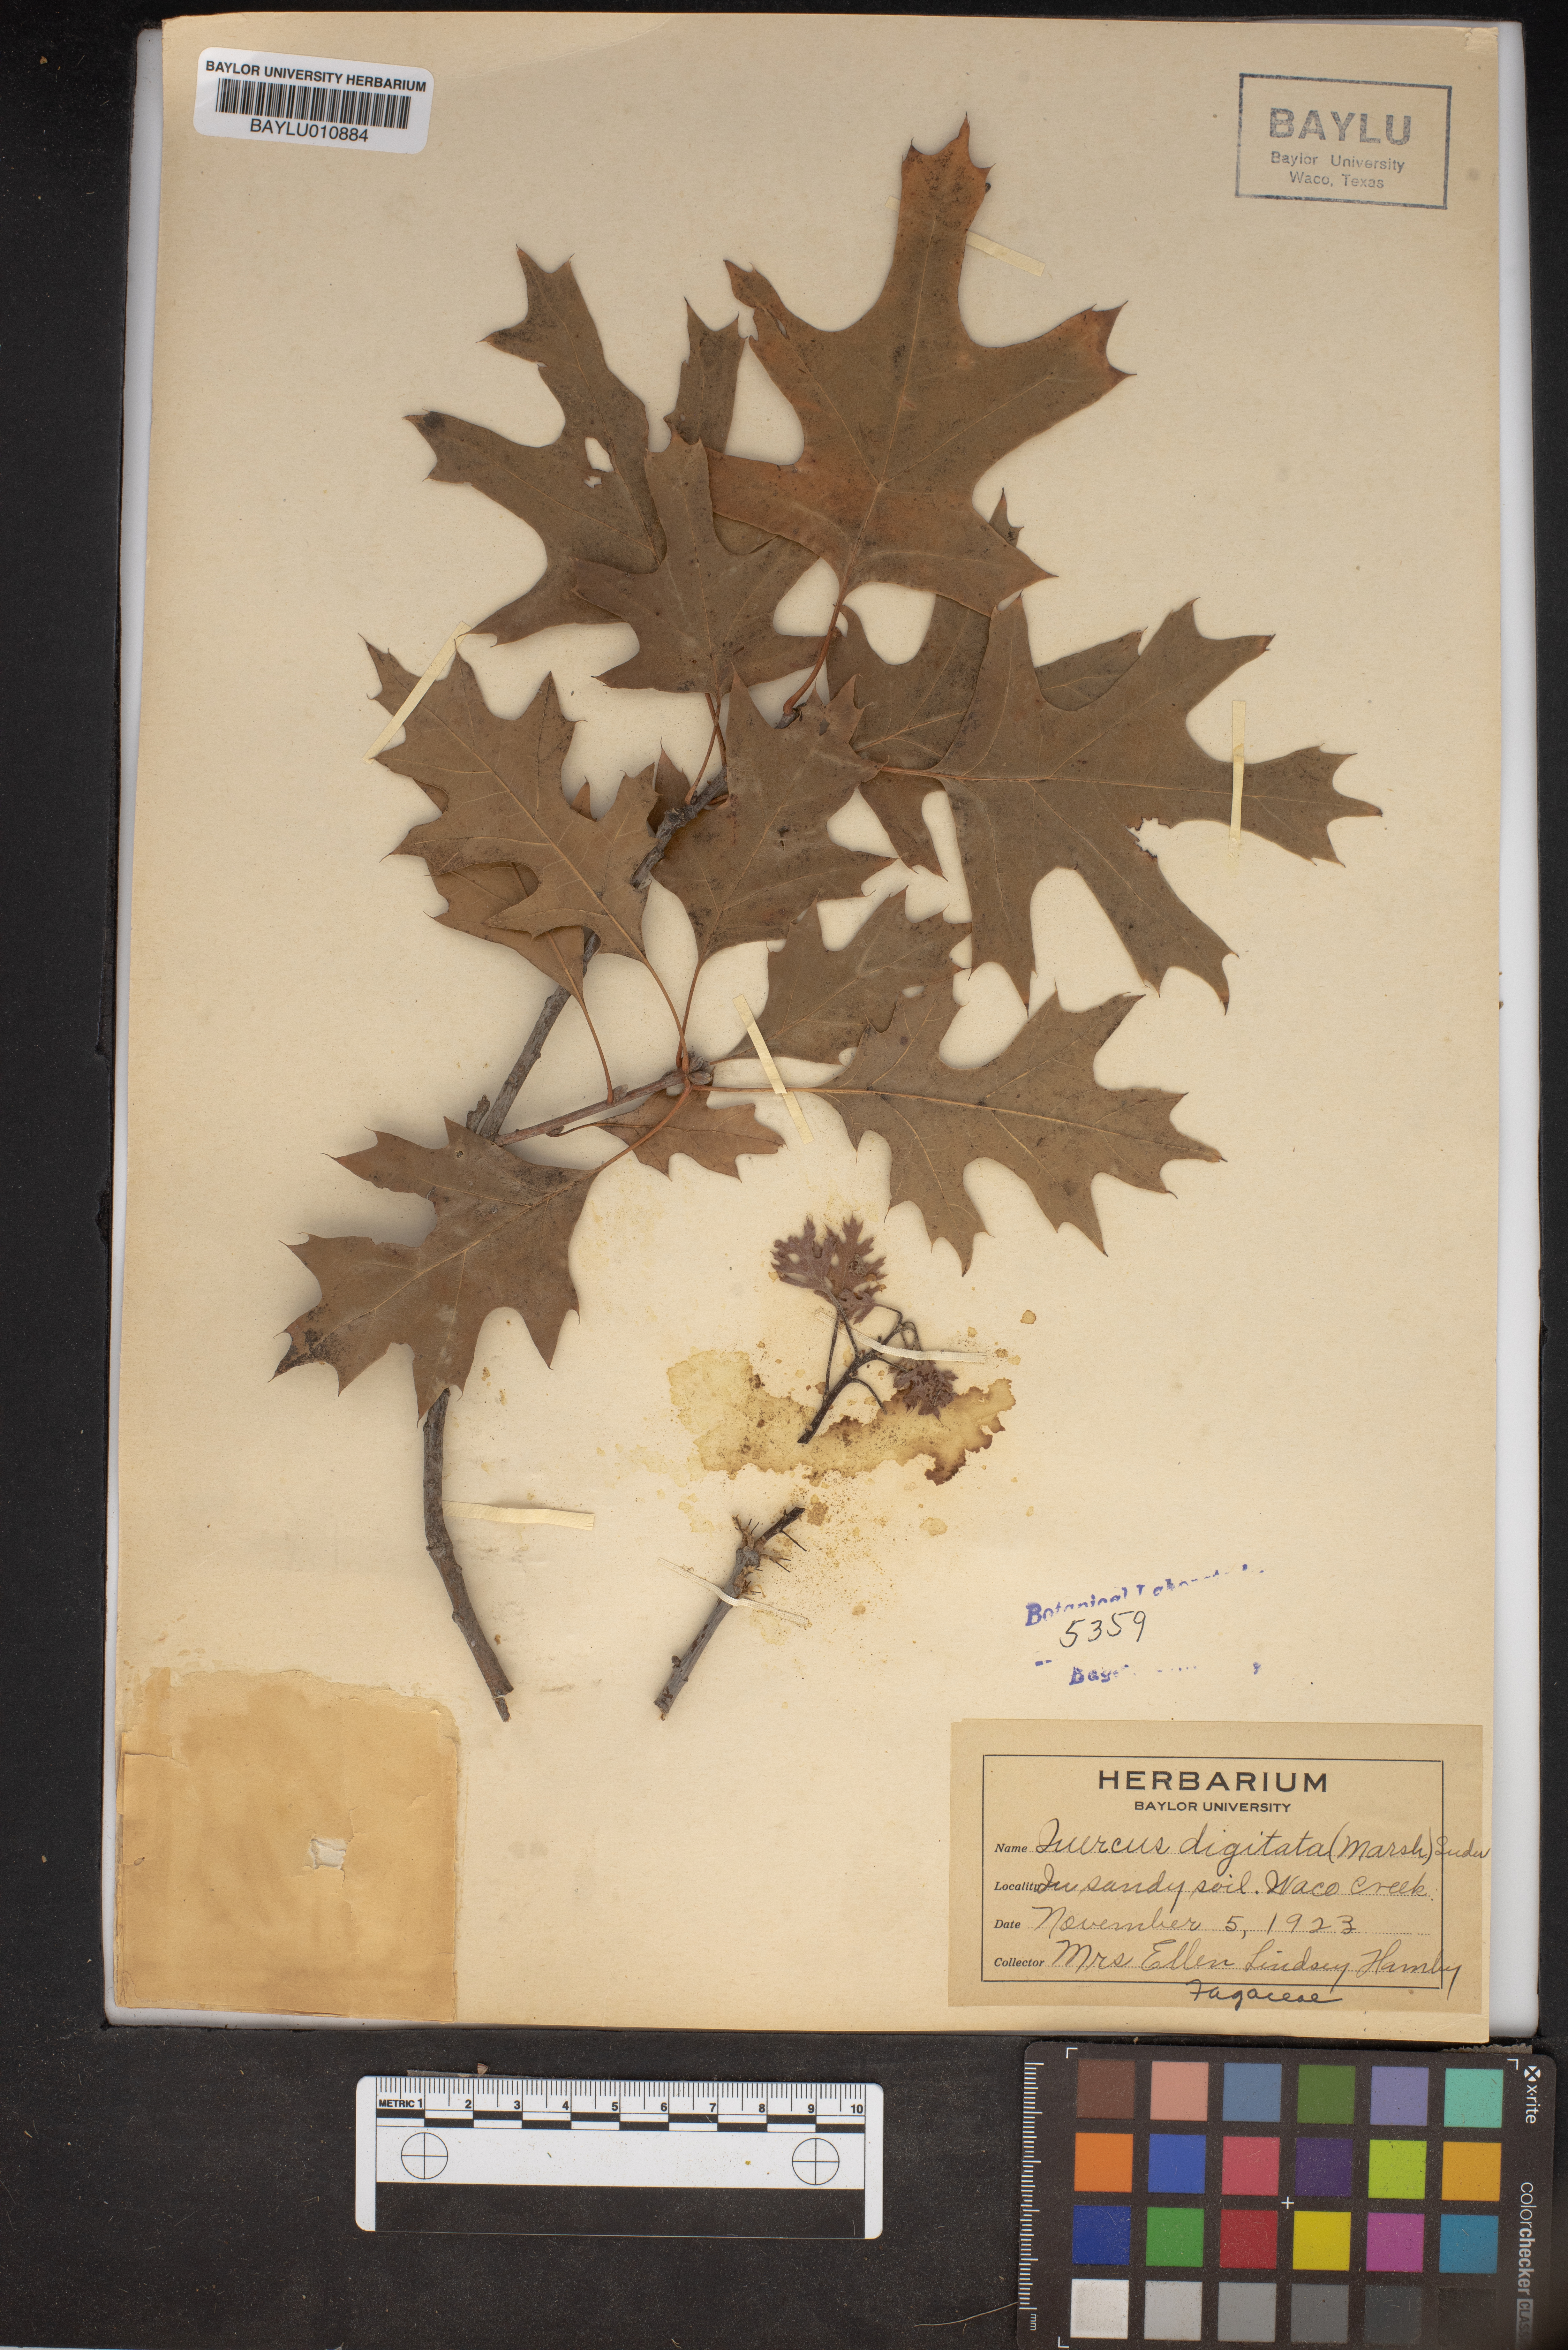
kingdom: Plantae
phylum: Tracheophyta
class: Magnoliopsida
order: Fagales
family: Fagaceae
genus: Quercus
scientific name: Quercus falcata
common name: Southern red oak
